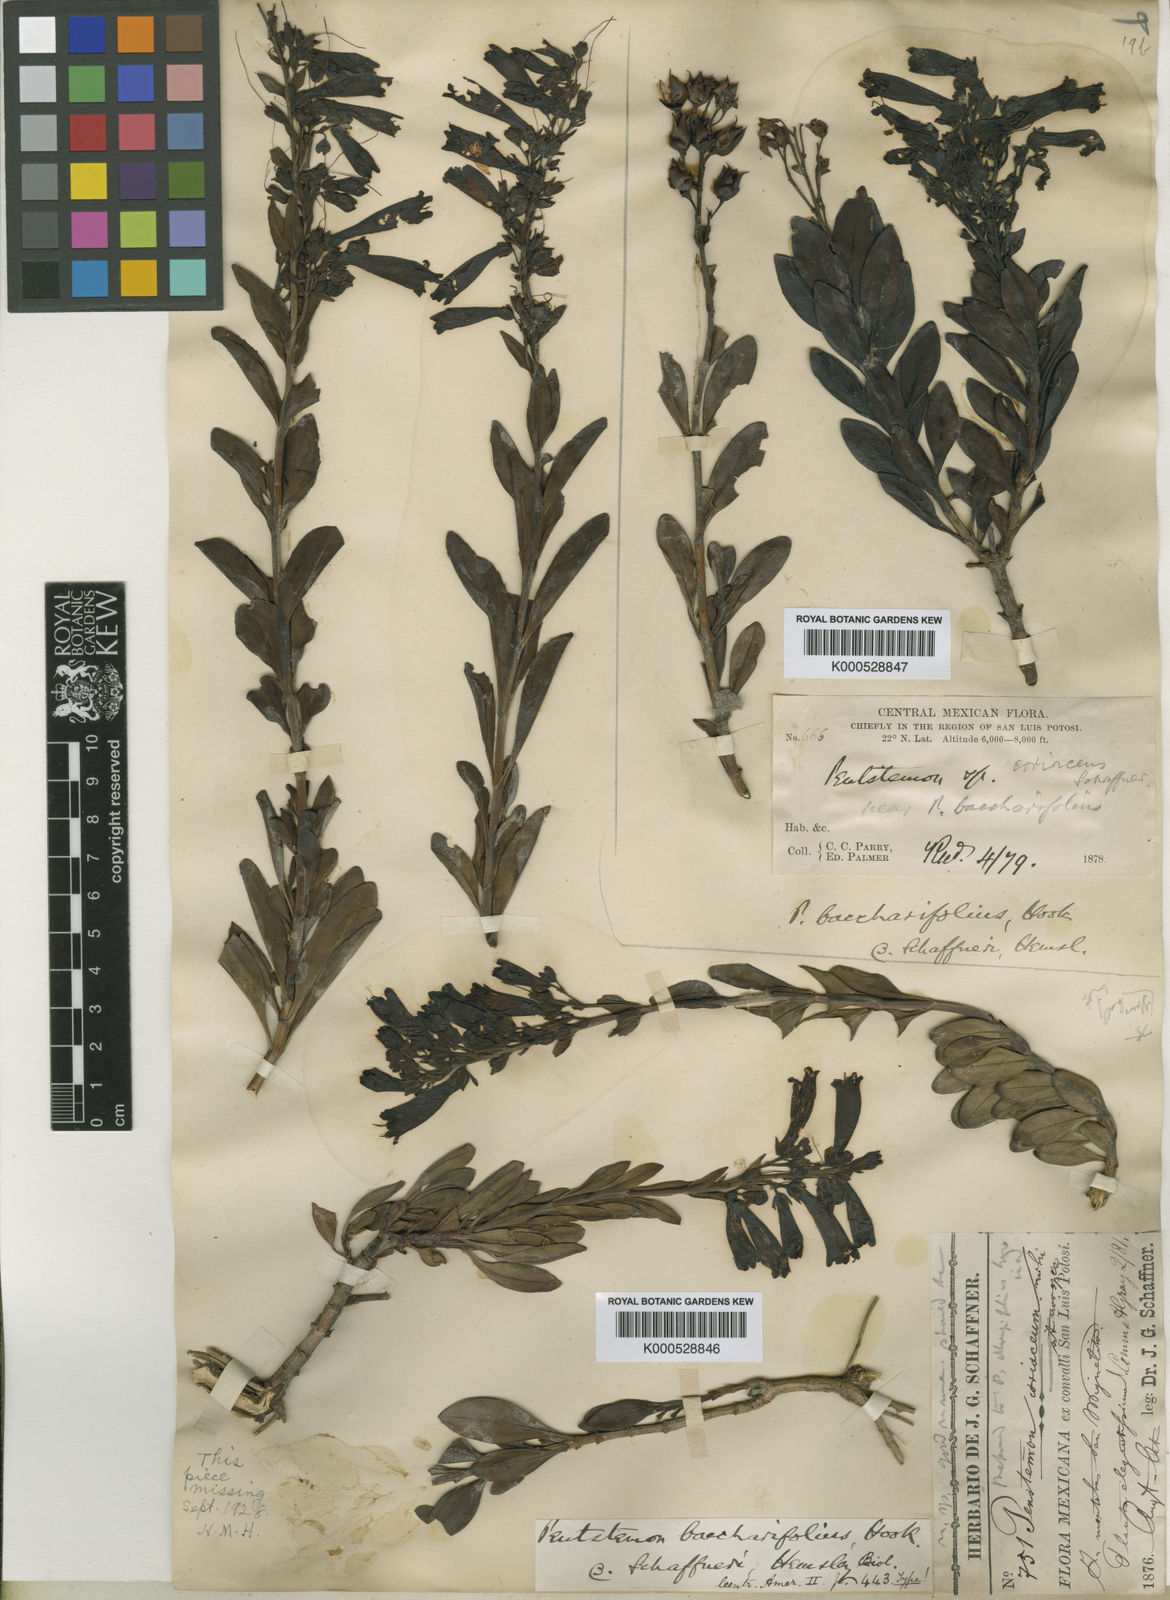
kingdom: Plantae
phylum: Tracheophyta
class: Magnoliopsida
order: Lamiales
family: Plantaginaceae
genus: Penstemon
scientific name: Penstemon schaffneri
